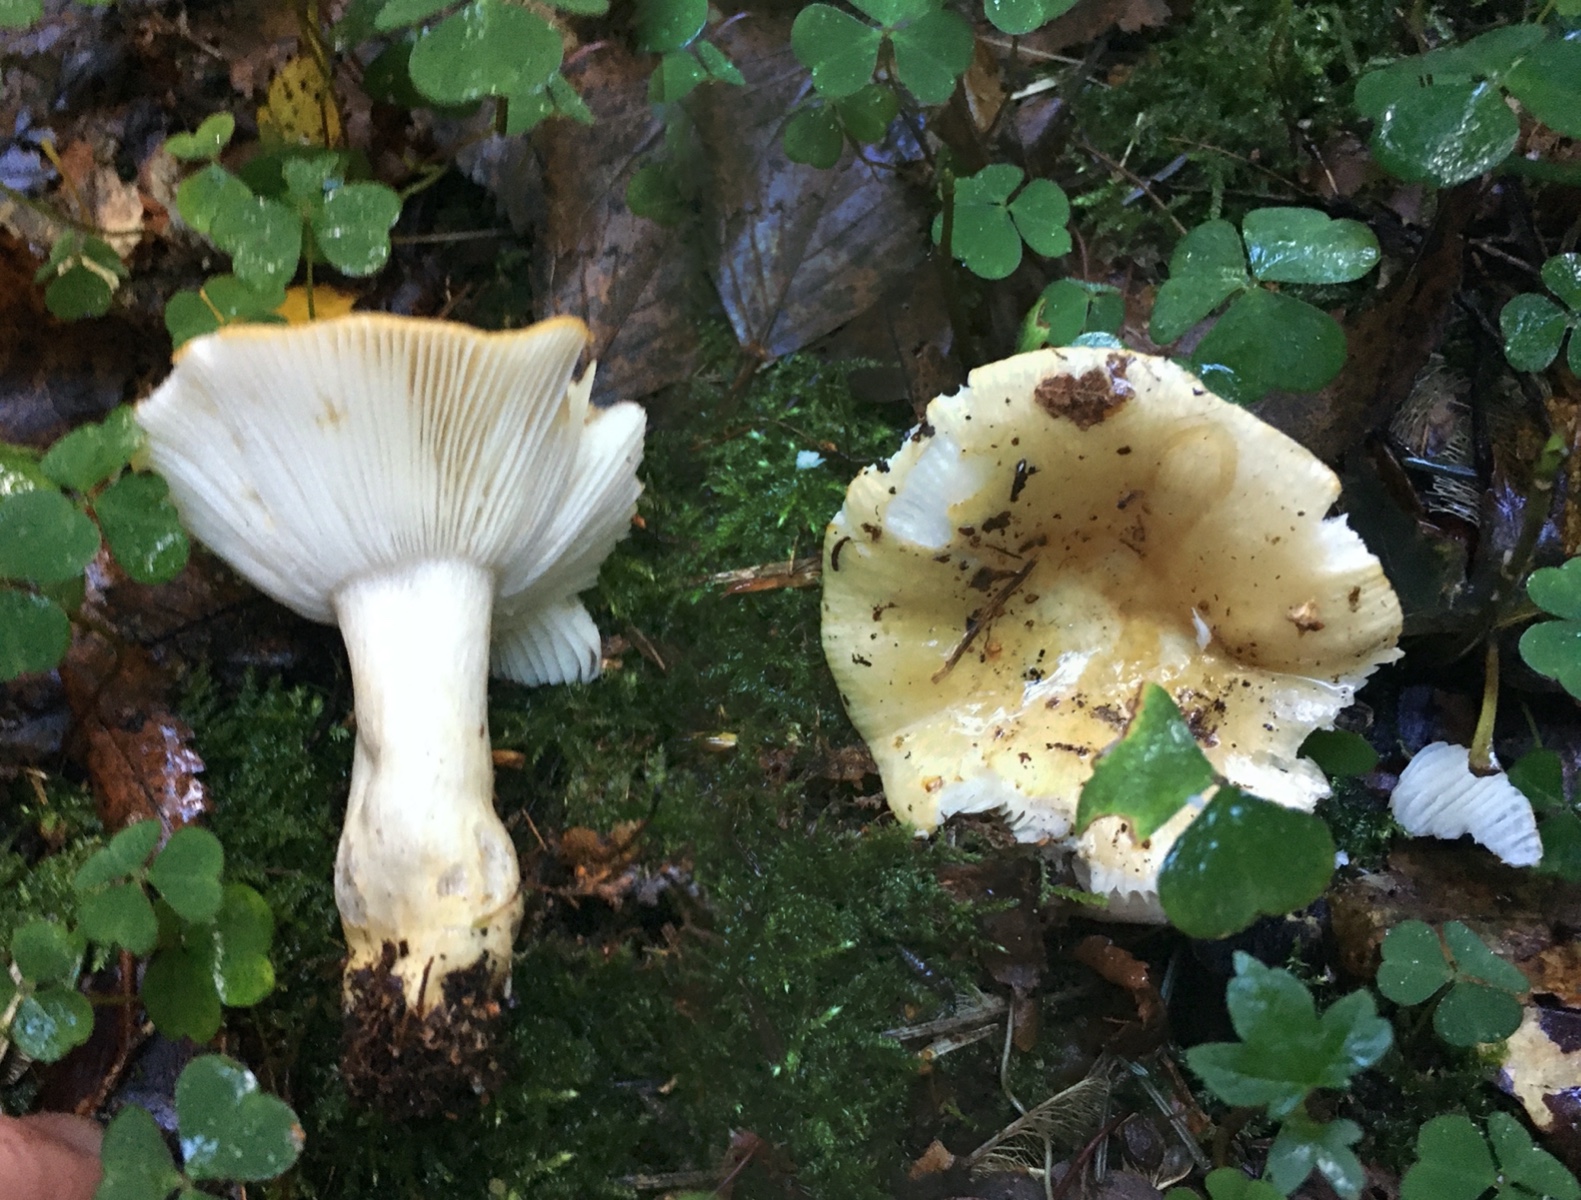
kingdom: Fungi
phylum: Basidiomycota
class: Agaricomycetes
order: Russulales
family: Russulaceae
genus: Russula
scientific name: Russula ochroleuca
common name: okkergul skørhat
